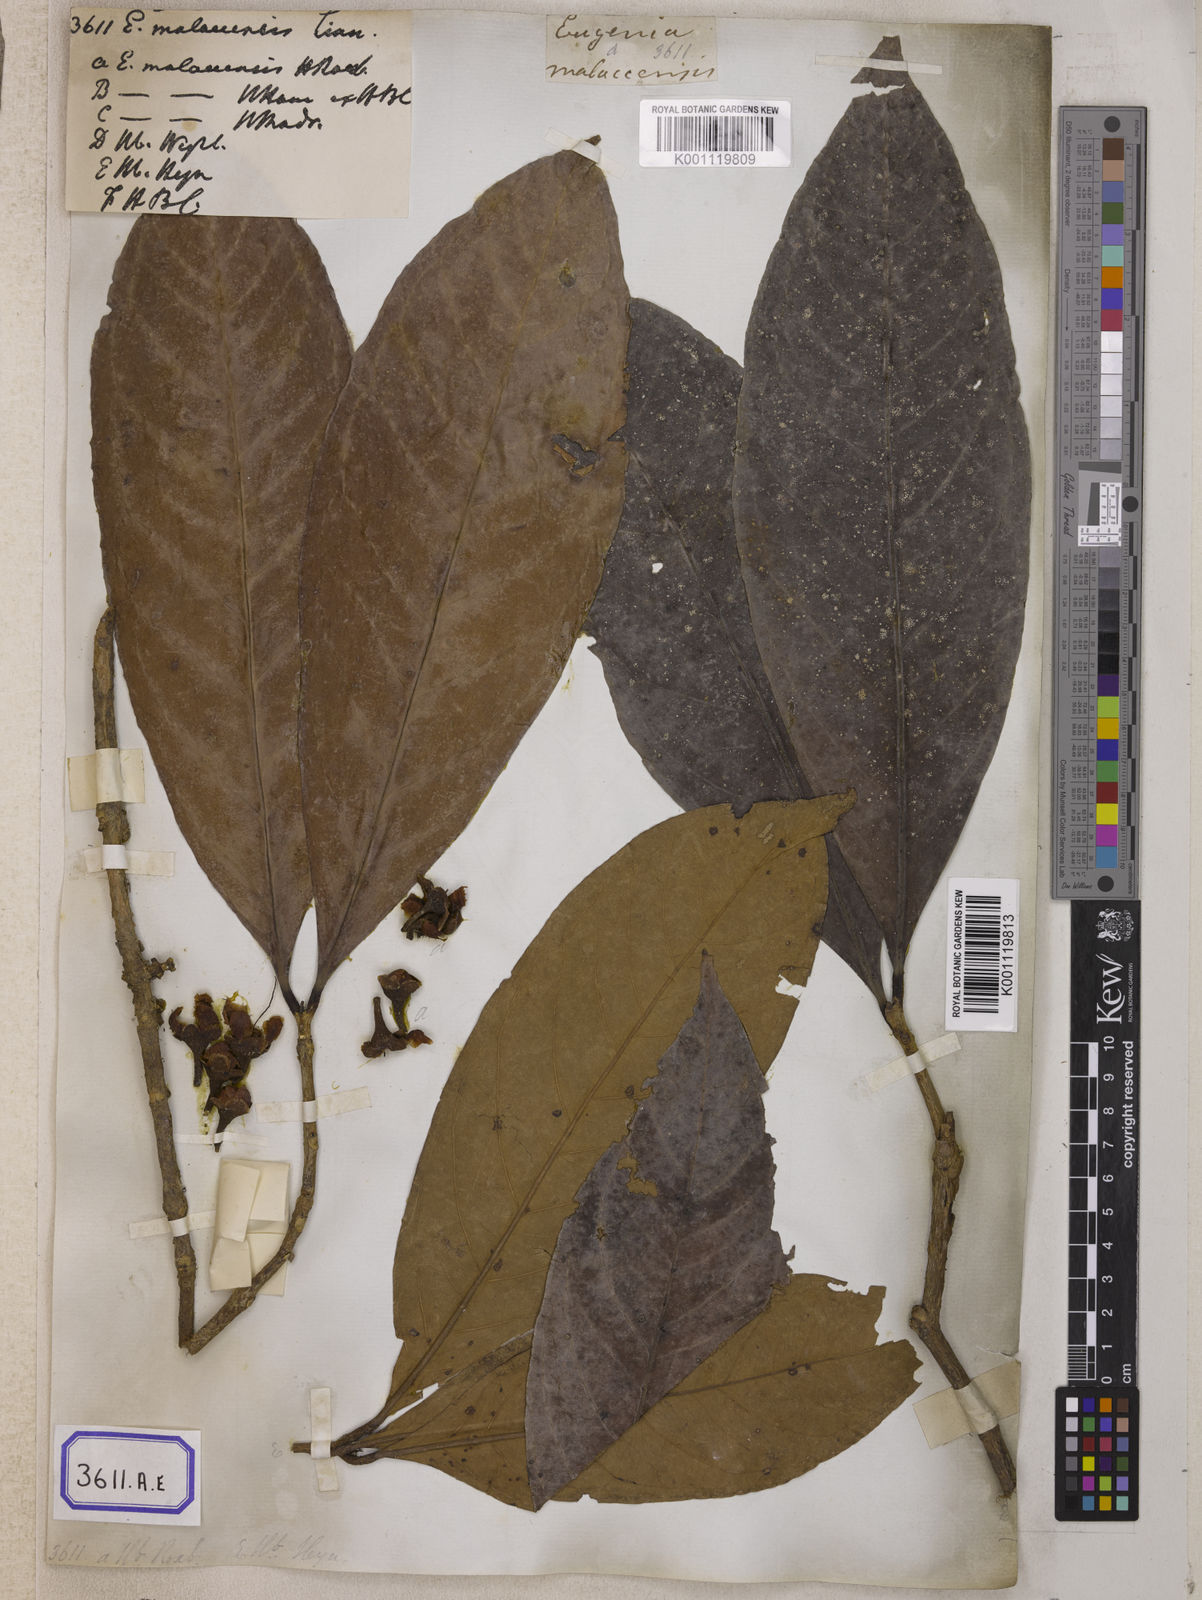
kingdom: Plantae
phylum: Tracheophyta
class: Magnoliopsida
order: Myrtales
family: Myrtaceae
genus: Syzygium
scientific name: Syzygium malaccense
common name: Malaysian apple
